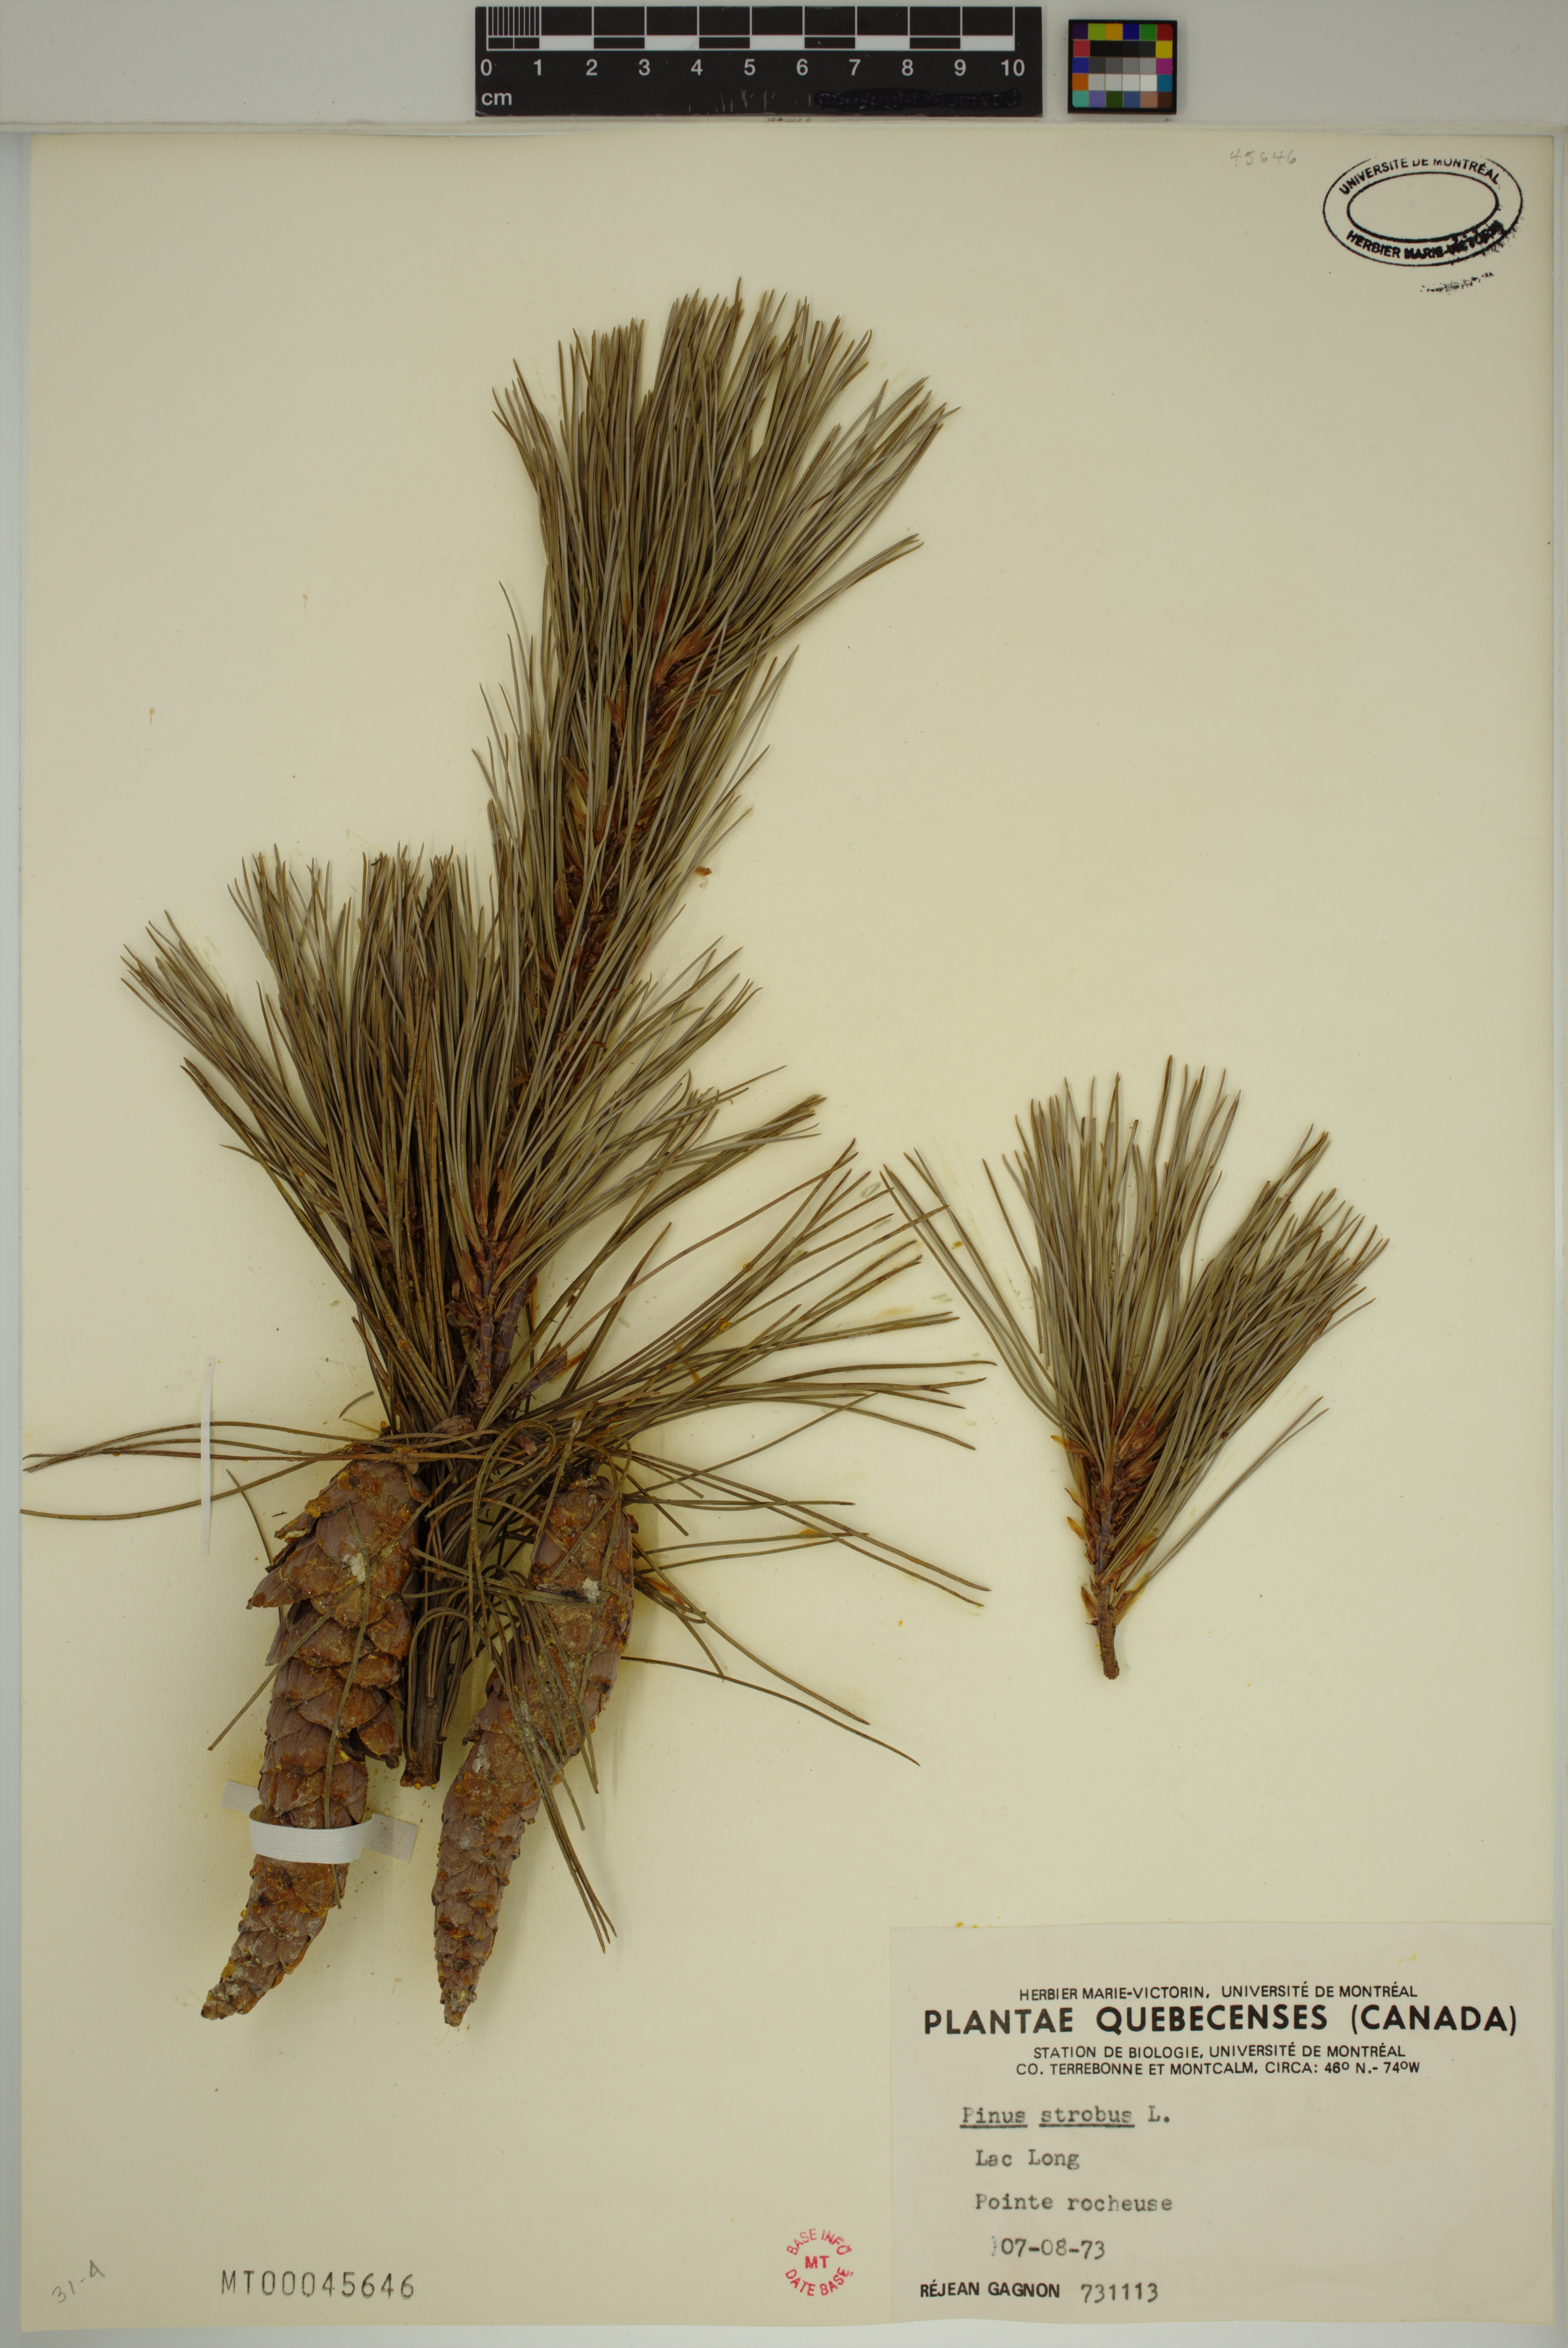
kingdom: Plantae
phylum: Tracheophyta
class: Pinopsida
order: Pinales
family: Pinaceae
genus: Pinus
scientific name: Pinus strobus
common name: Weymouth pine
